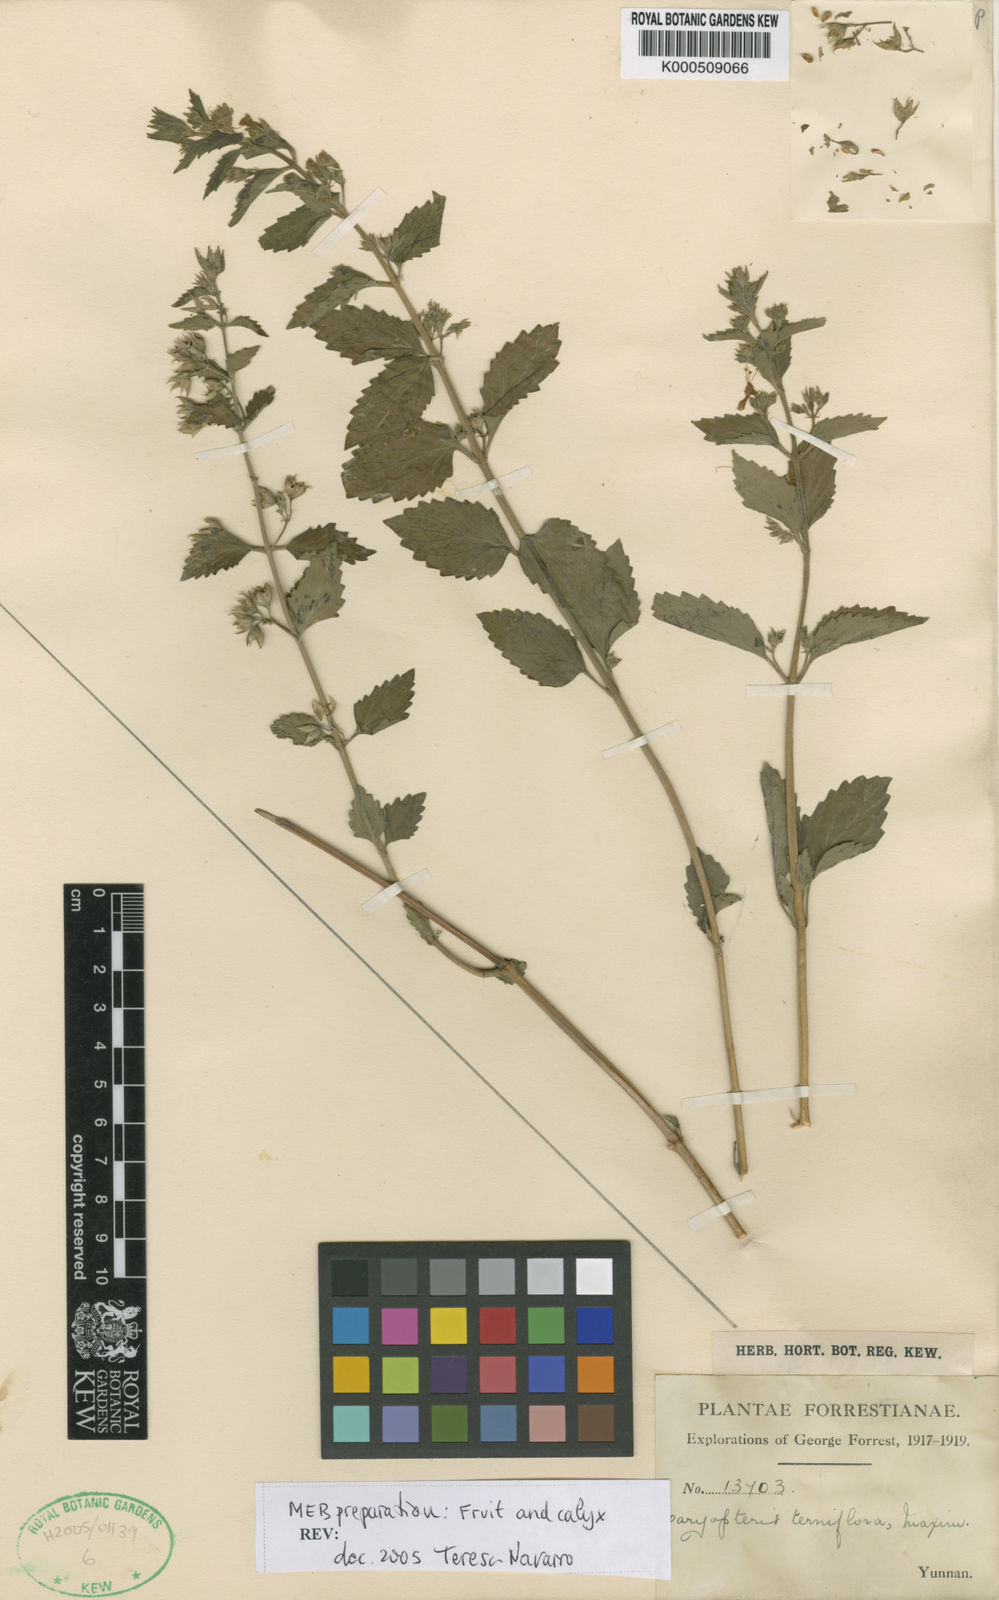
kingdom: Plantae
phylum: Tracheophyta
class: Magnoliopsida
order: Lamiales
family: Lamiaceae
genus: Schnabelia
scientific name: Schnabelia terniflora
